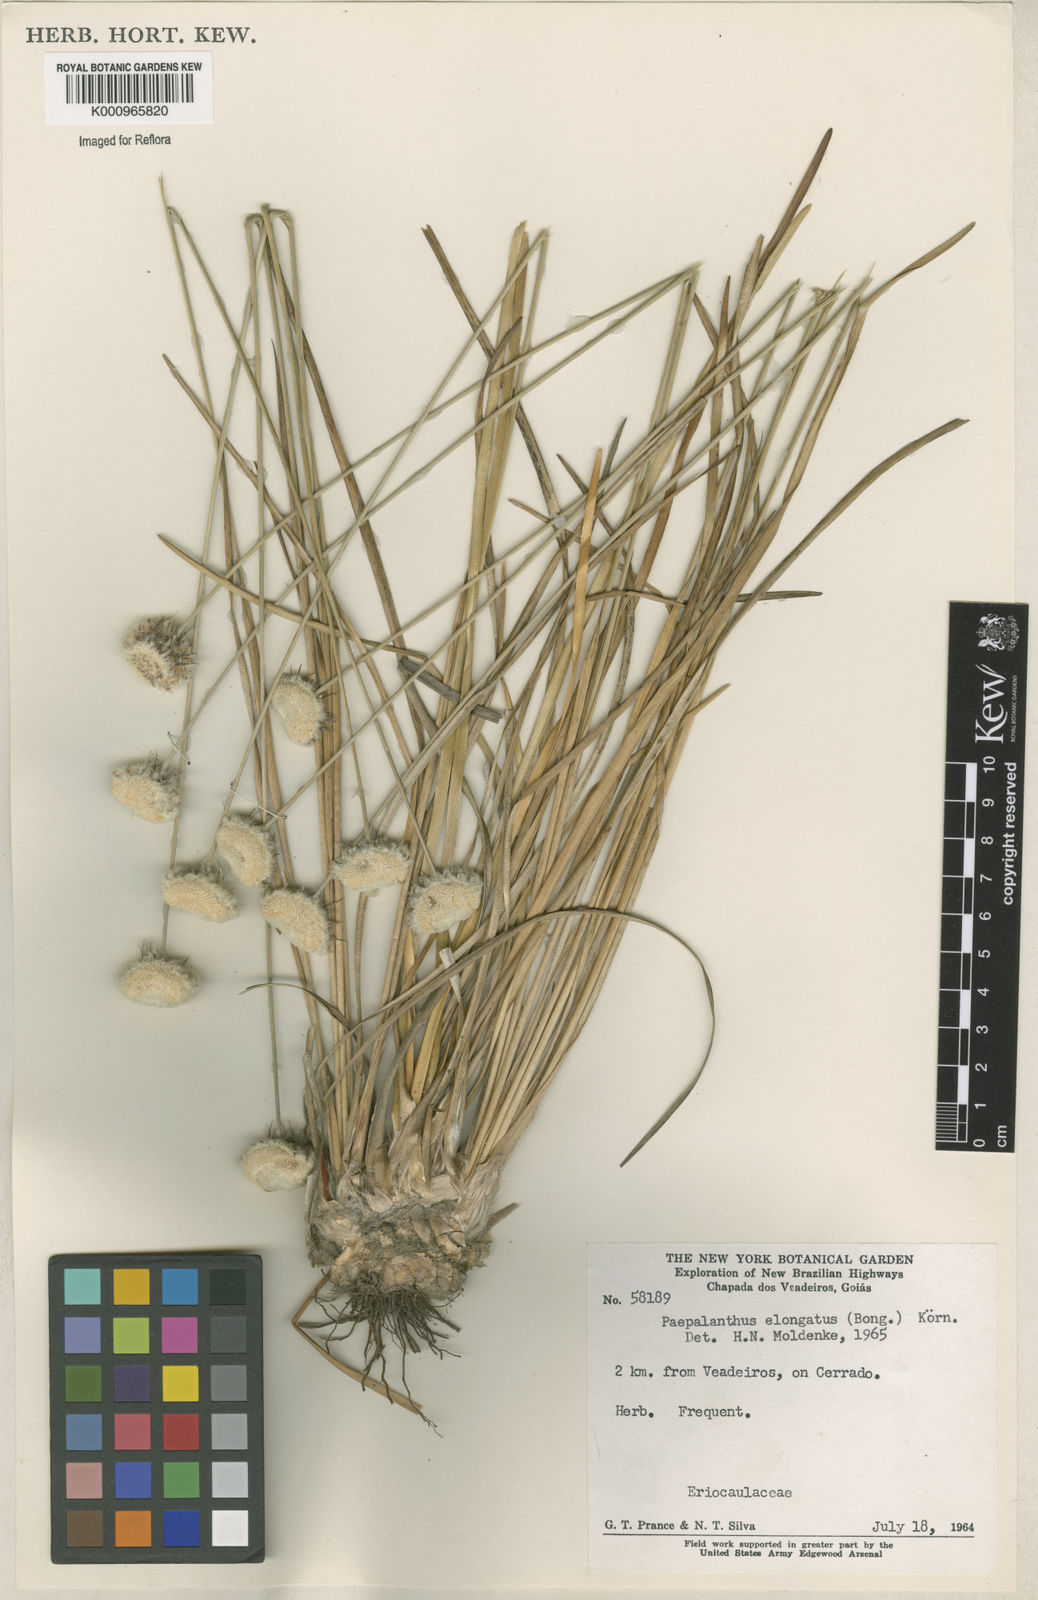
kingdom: Plantae
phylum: Tracheophyta
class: Liliopsida
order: Poales
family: Eriocaulaceae
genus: Paepalanthus
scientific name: Paepalanthus
